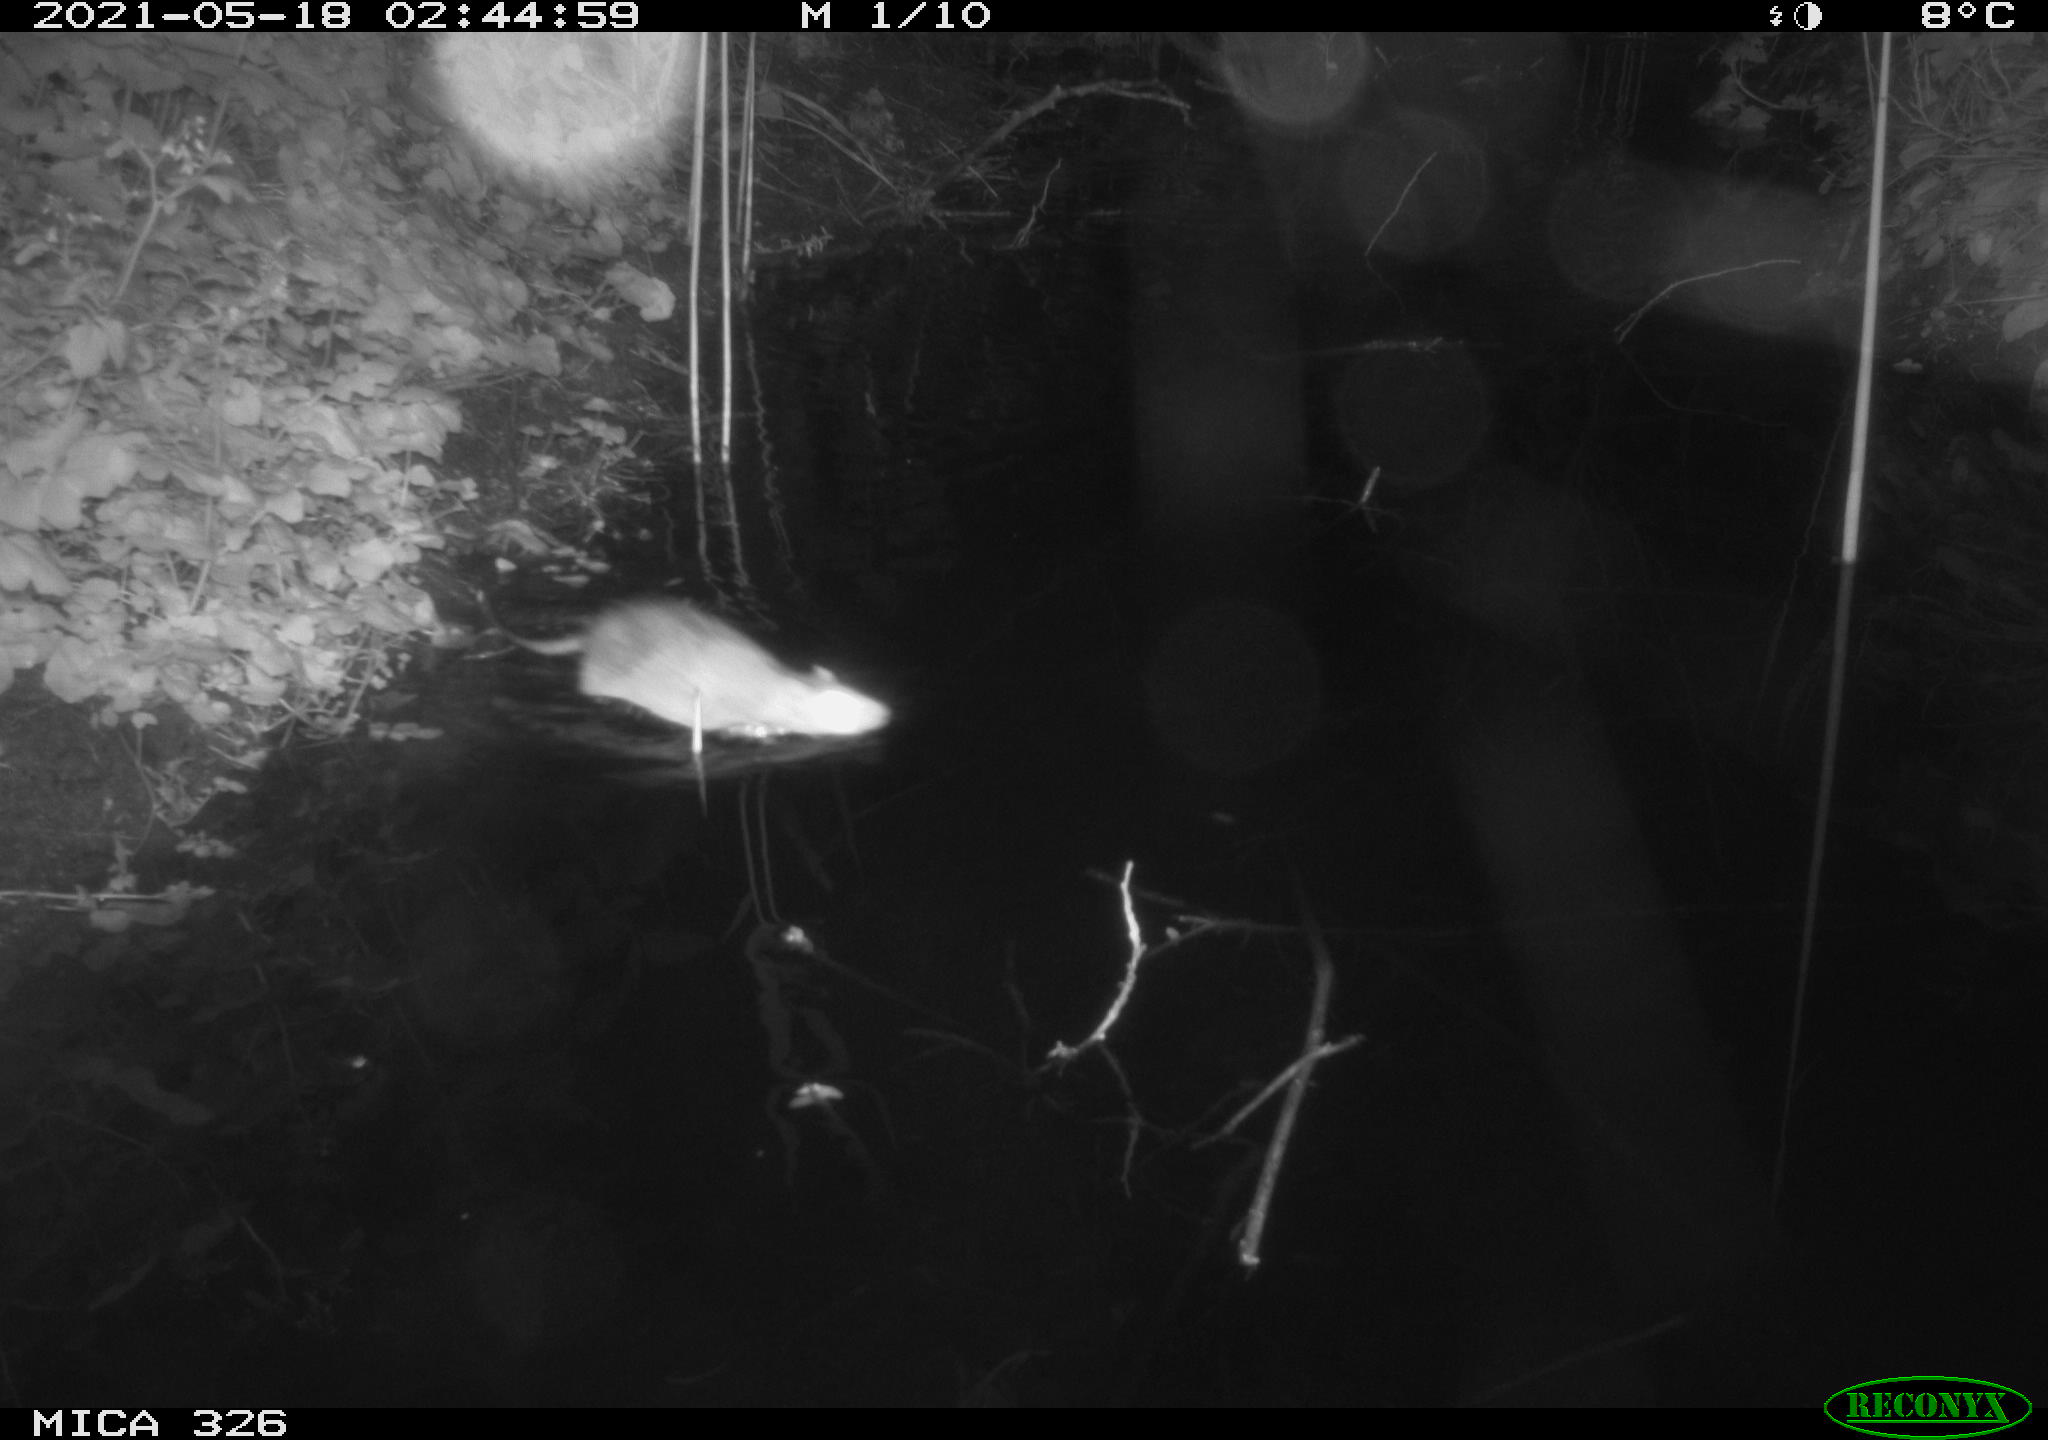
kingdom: Animalia
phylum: Chordata
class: Mammalia
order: Rodentia
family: Muridae
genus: Rattus
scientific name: Rattus norvegicus
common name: Brown rat
